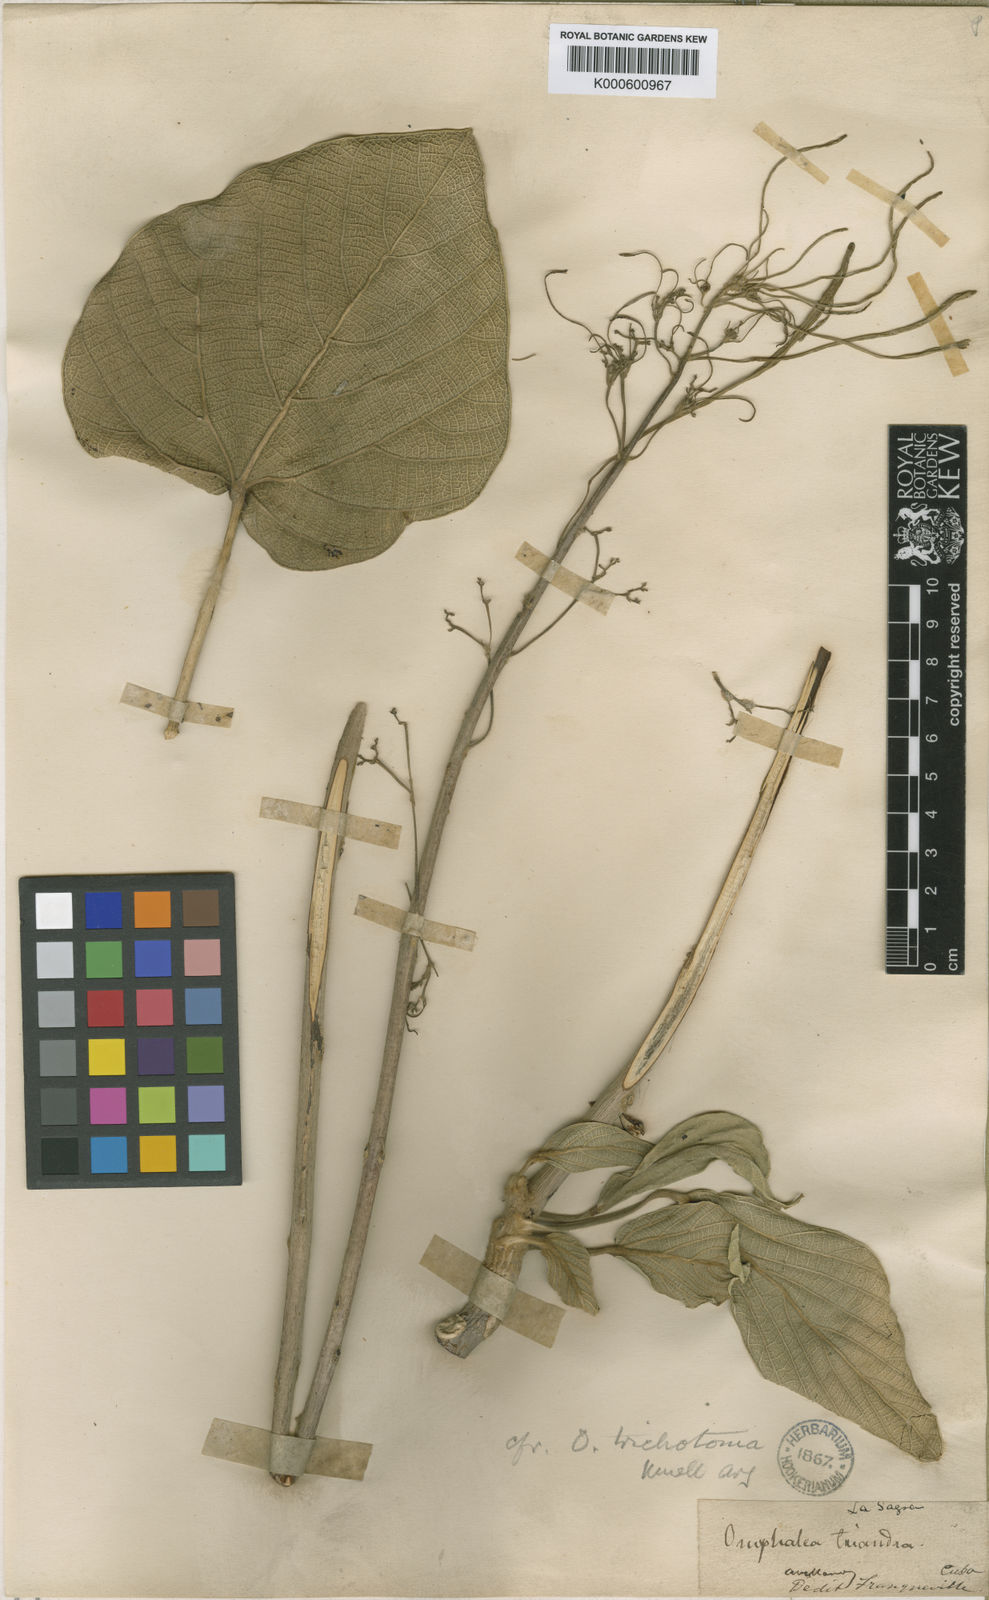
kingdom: Plantae
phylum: Tracheophyta
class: Magnoliopsida
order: Malpighiales
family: Euphorbiaceae
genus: Omphalea
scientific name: Omphalea
